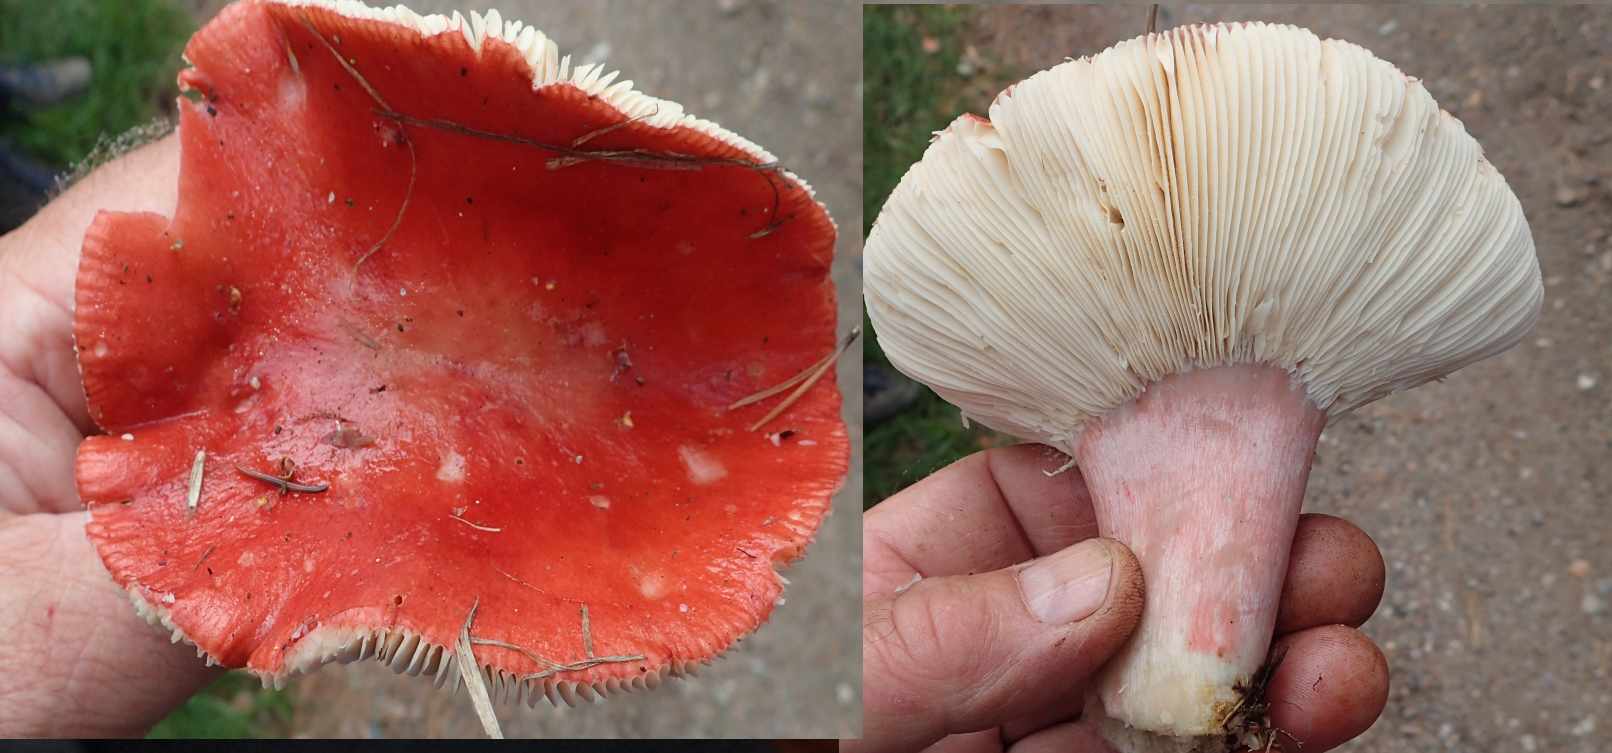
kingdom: Fungi
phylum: Basidiomycota
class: Agaricomycetes
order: Russulales
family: Russulaceae
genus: Russula
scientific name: Russula paludosa
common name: prægtig skørhat
